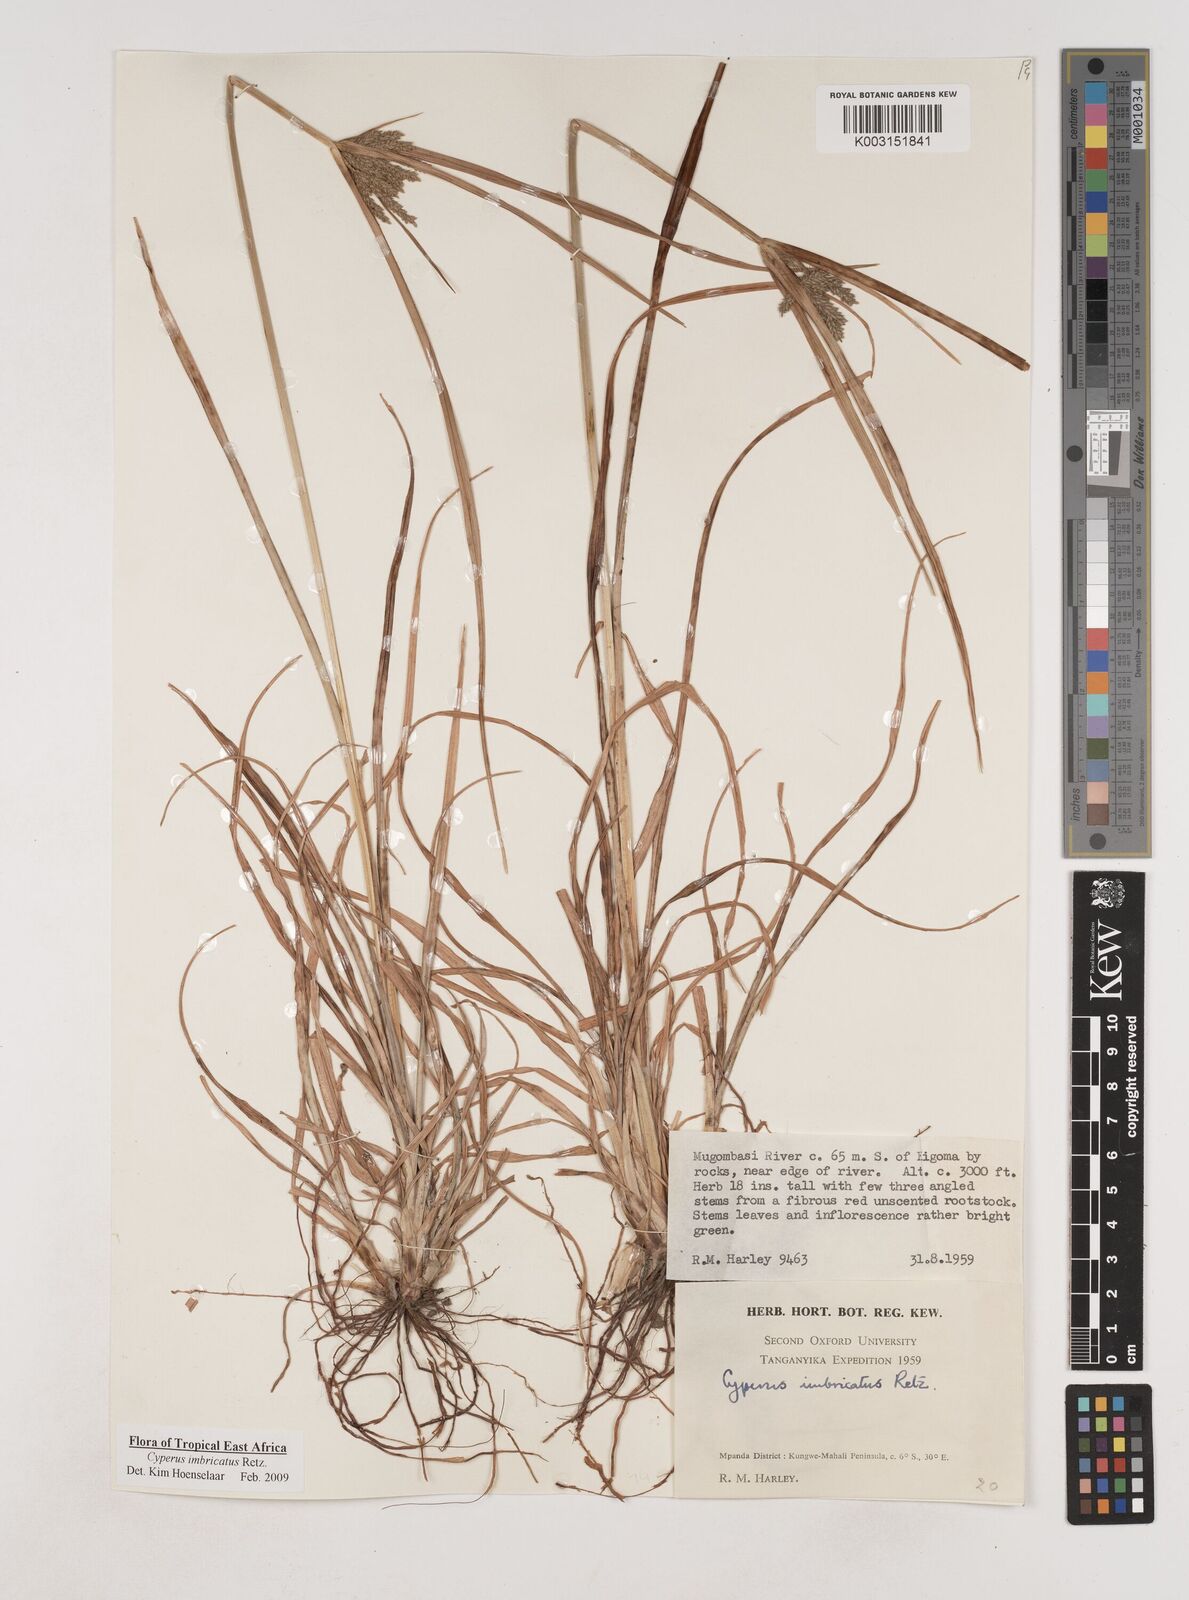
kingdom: Plantae
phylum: Tracheophyta
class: Liliopsida
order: Poales
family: Cyperaceae
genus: Cyperus
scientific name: Cyperus imbricatus
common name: Shingle flatsedge
